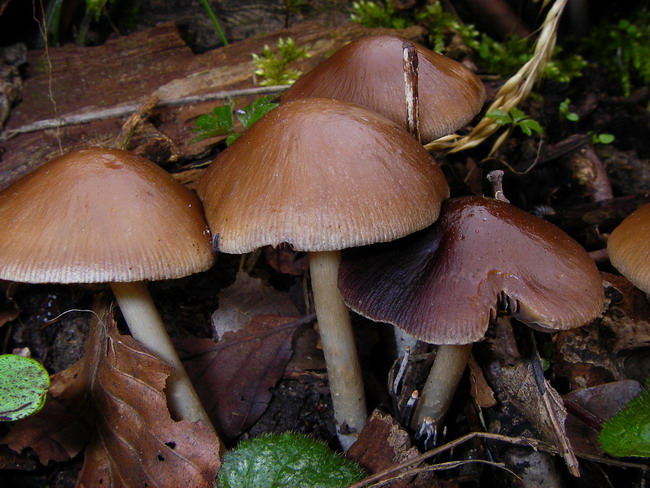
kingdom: Fungi
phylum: Basidiomycota
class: Agaricomycetes
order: Agaricales
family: Psathyrellaceae
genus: Psathyrella
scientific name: Psathyrella spadiceogrisea
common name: gråbrun mørkhat
